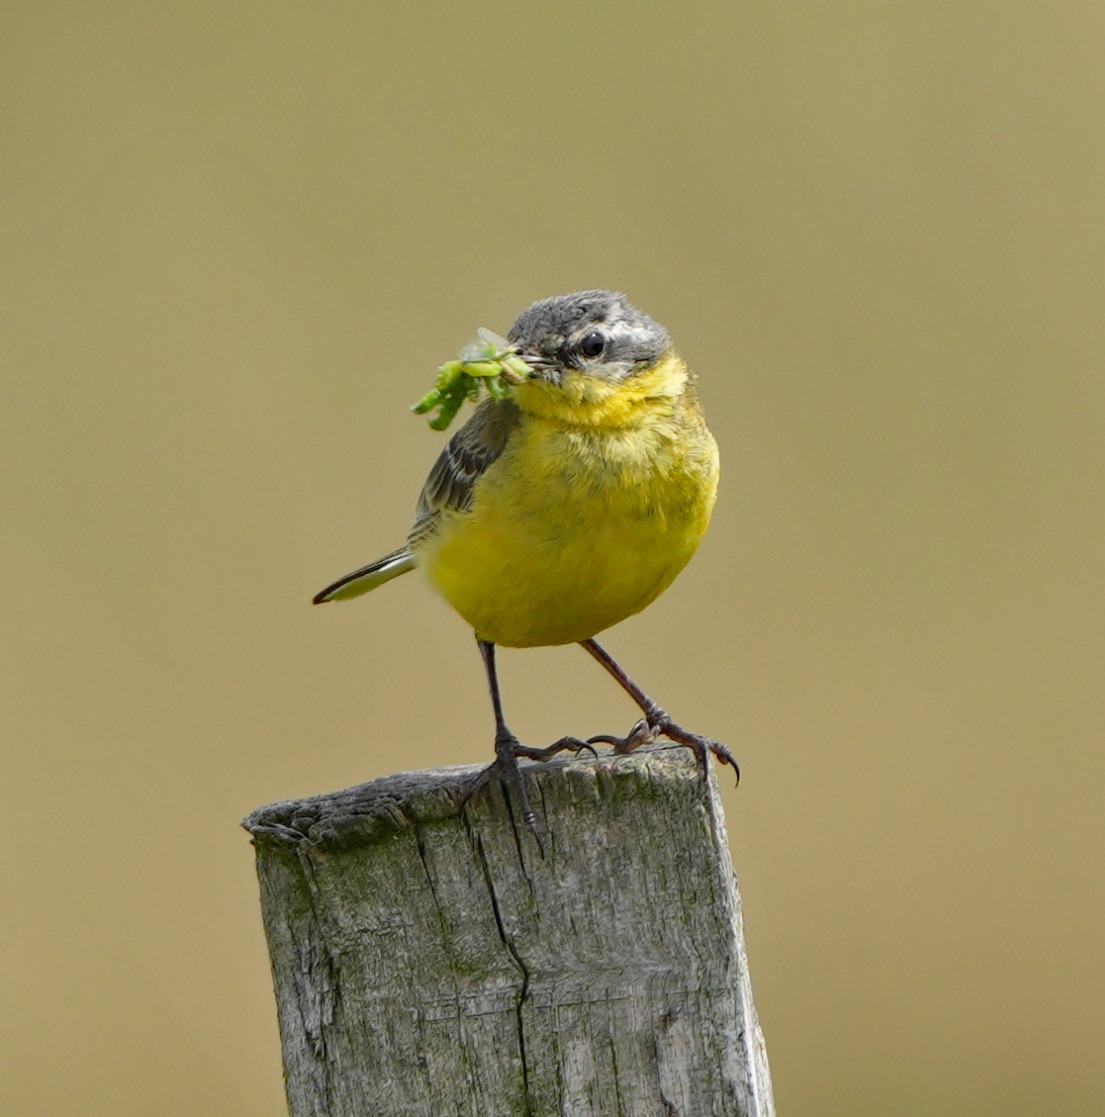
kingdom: Animalia
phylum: Chordata
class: Aves
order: Passeriformes
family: Motacillidae
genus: Motacilla
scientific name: Motacilla flava
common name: Gul vipstjert
